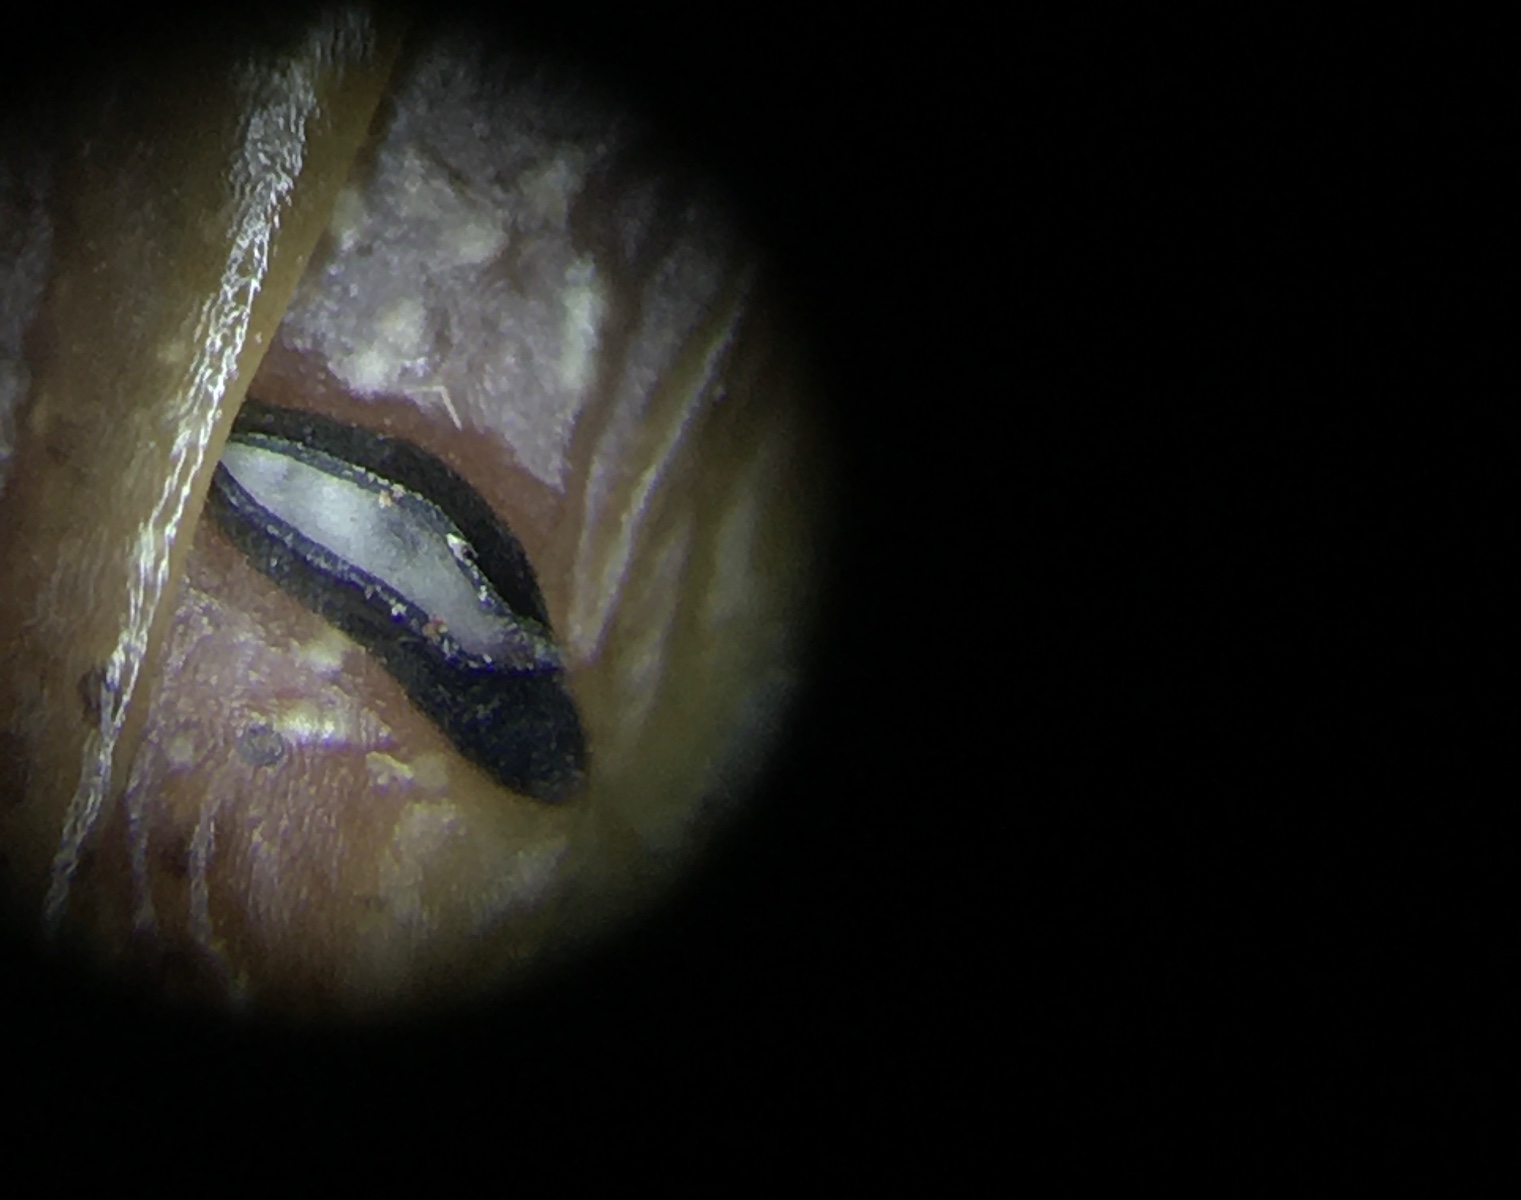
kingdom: Fungi
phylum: Ascomycota
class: Leotiomycetes
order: Rhytismatales
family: Rhytismataceae
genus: Lophodermium
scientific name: Lophodermium petiolicola
